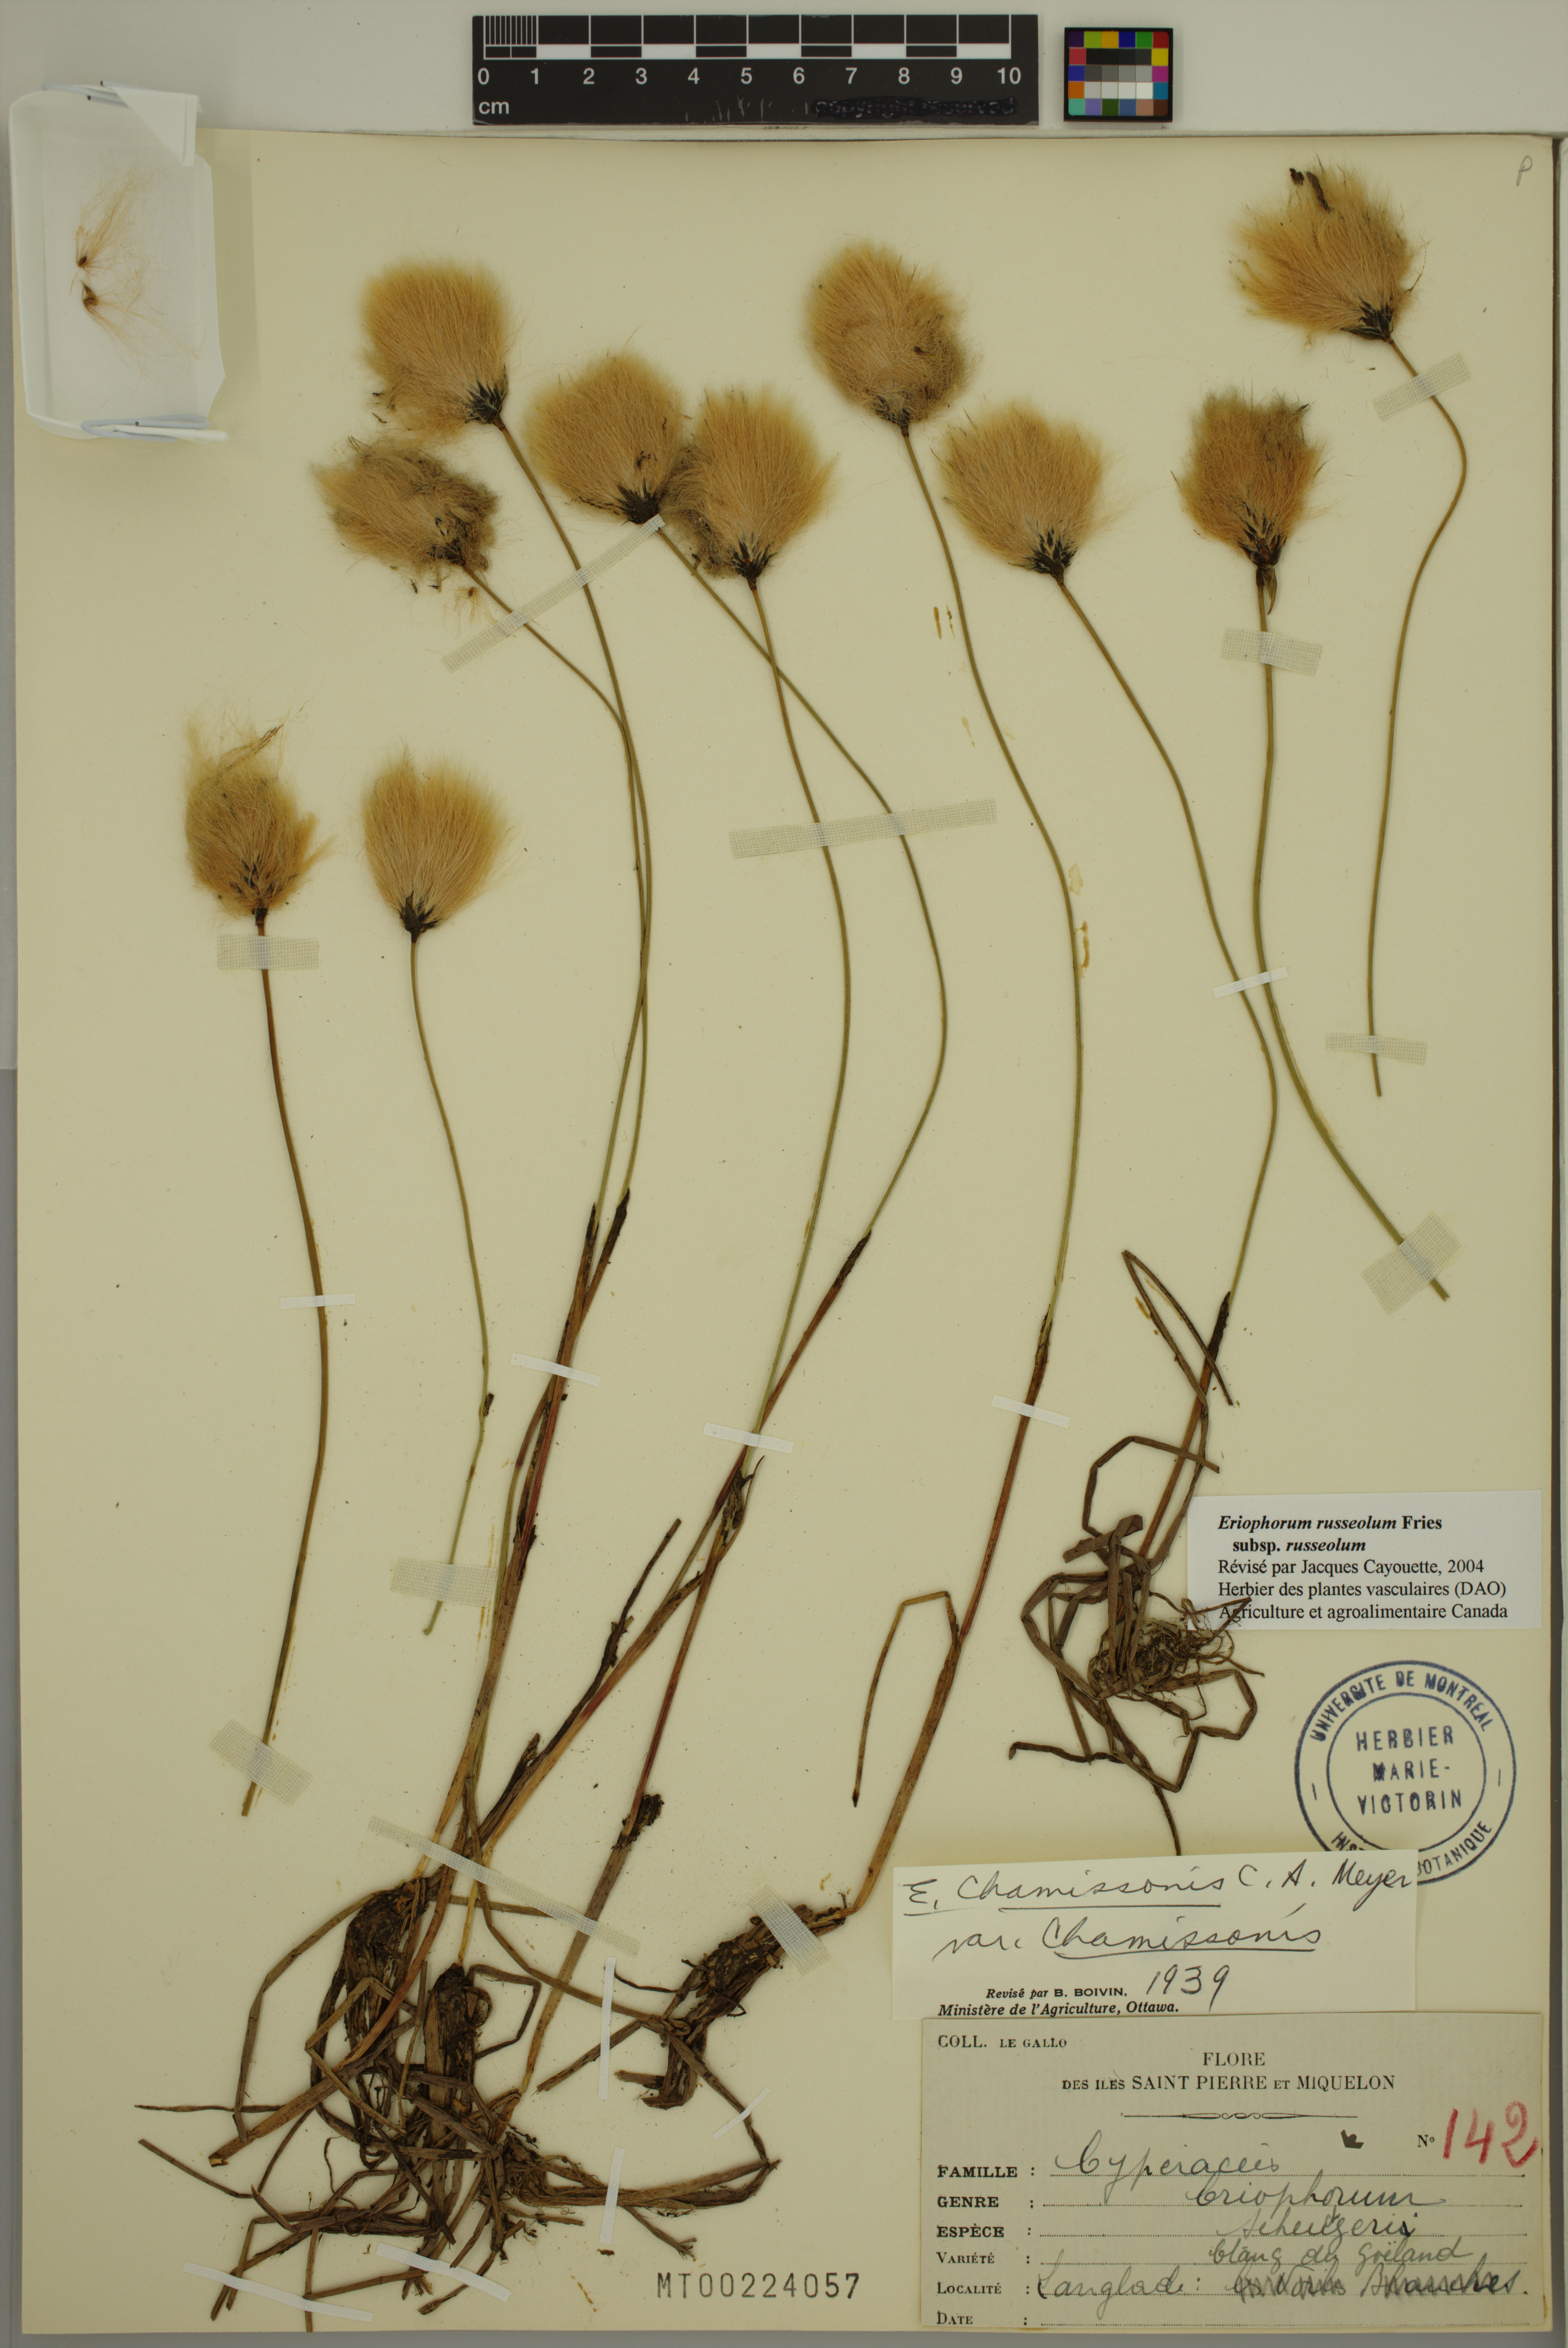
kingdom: Plantae
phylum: Tracheophyta
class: Liliopsida
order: Poales
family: Cyperaceae
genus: Eriophorum
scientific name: Eriophorum russeolum
